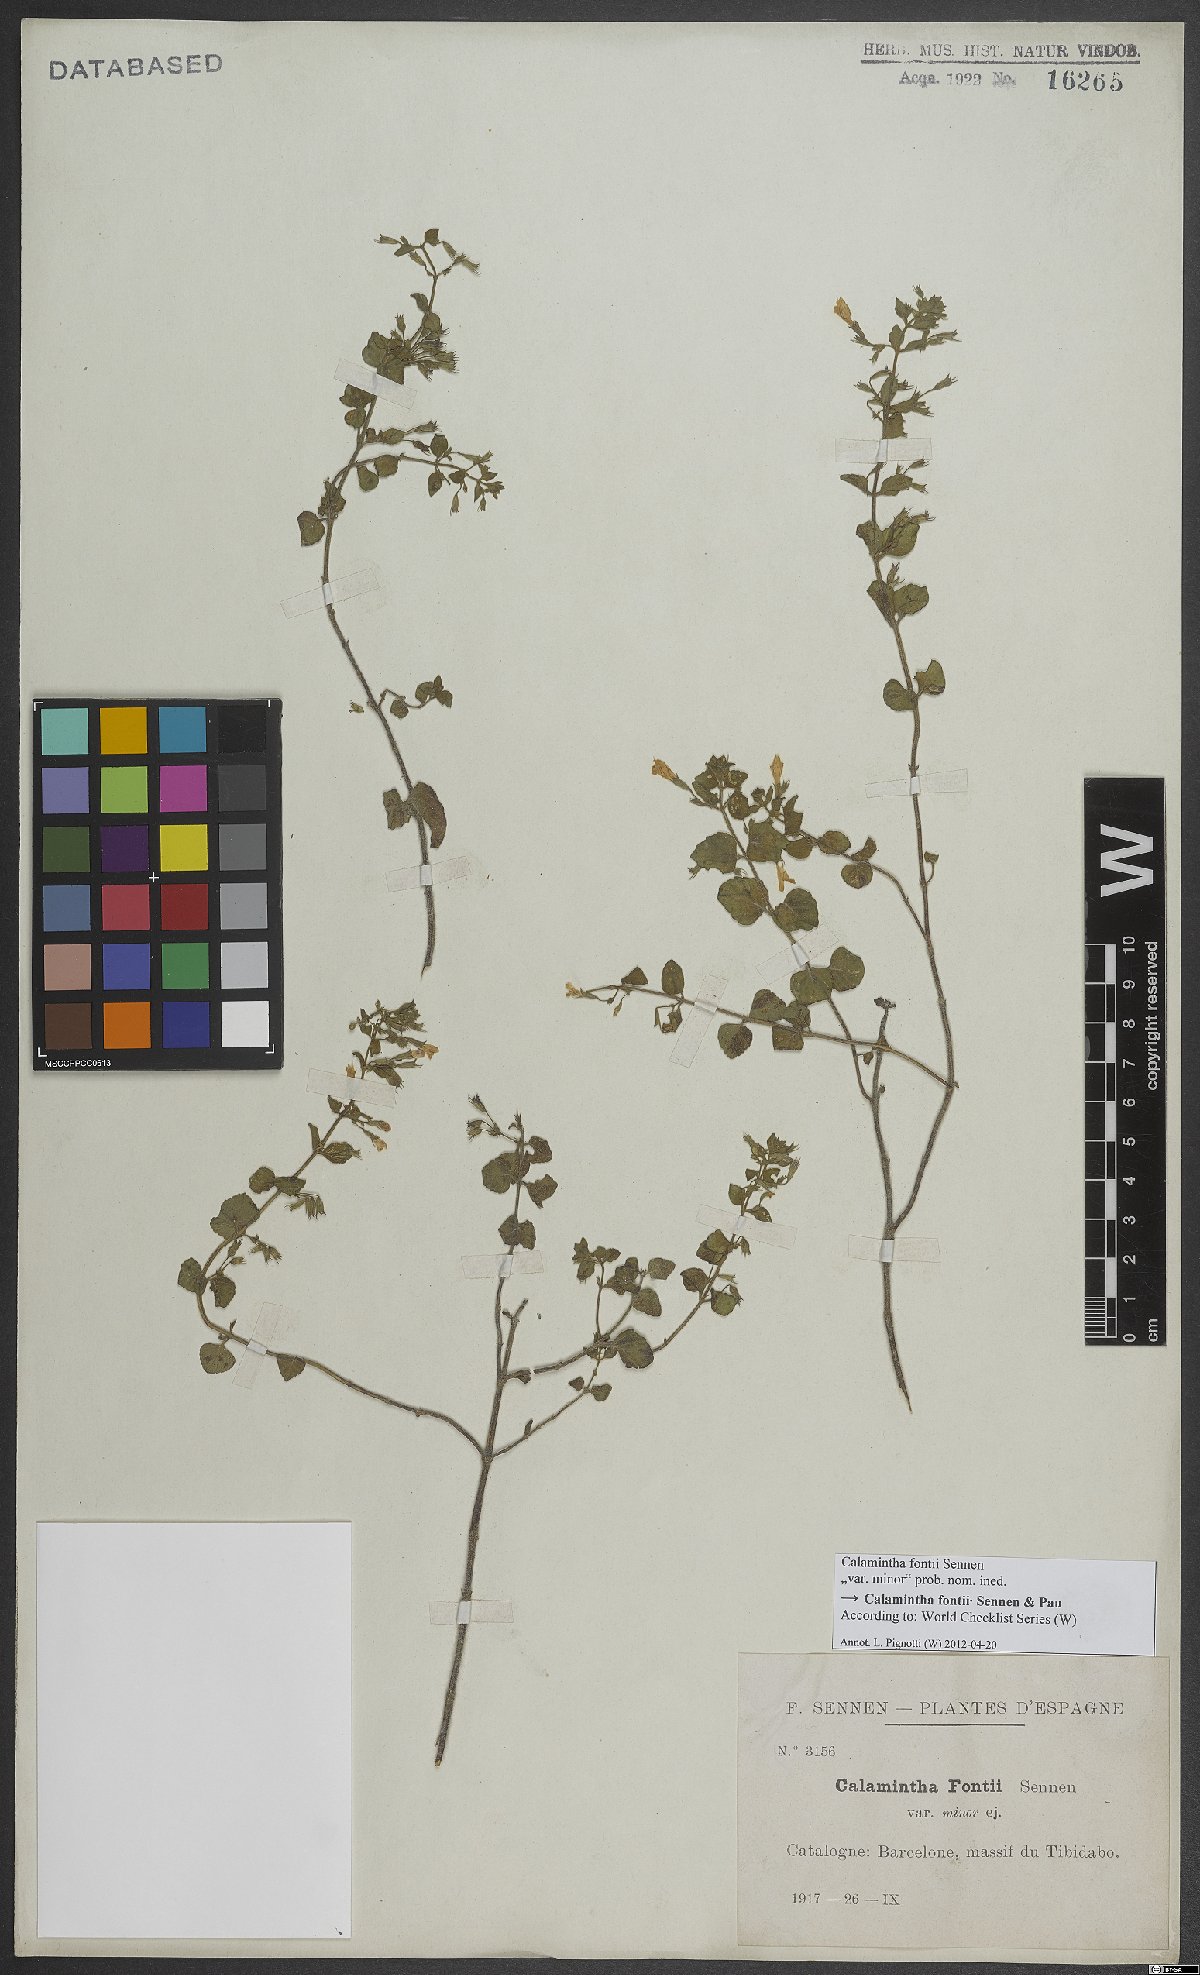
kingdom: Plantae
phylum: Tracheophyta
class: Magnoliopsida
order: Lamiales
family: Lamiaceae
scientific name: Lamiaceae
